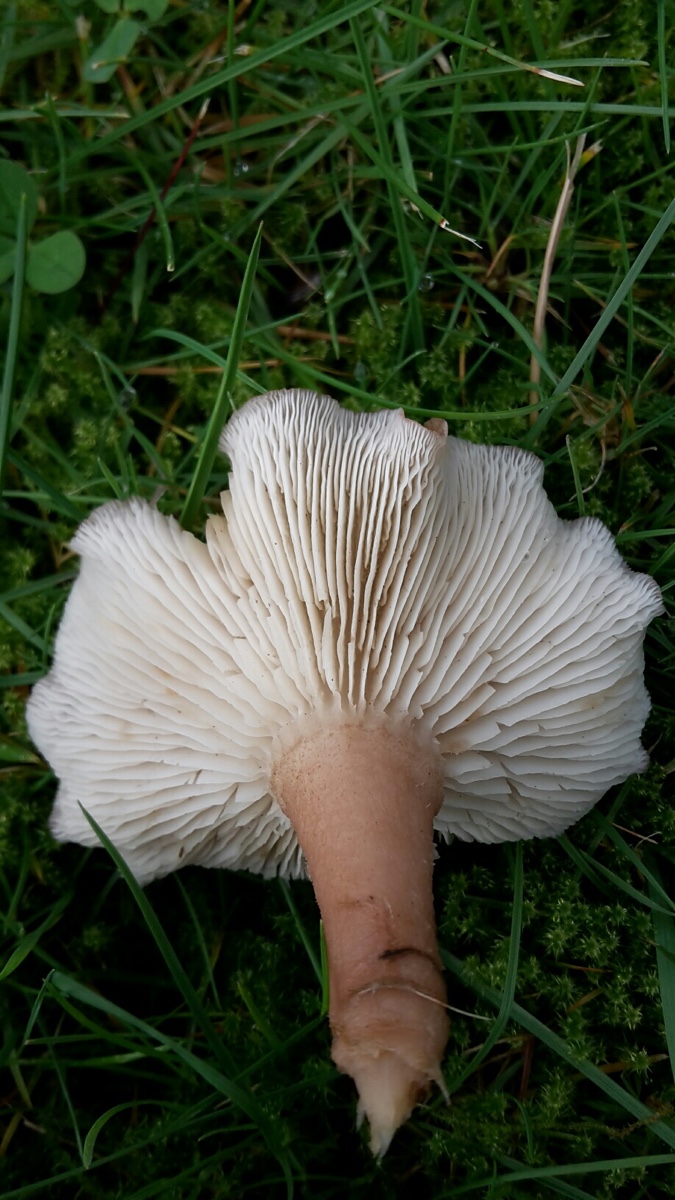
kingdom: Fungi
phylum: Basidiomycota
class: Agaricomycetes
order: Agaricales
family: Lyophyllaceae
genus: Calocybe
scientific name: Calocybe carnea
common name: rosa fagerhat
